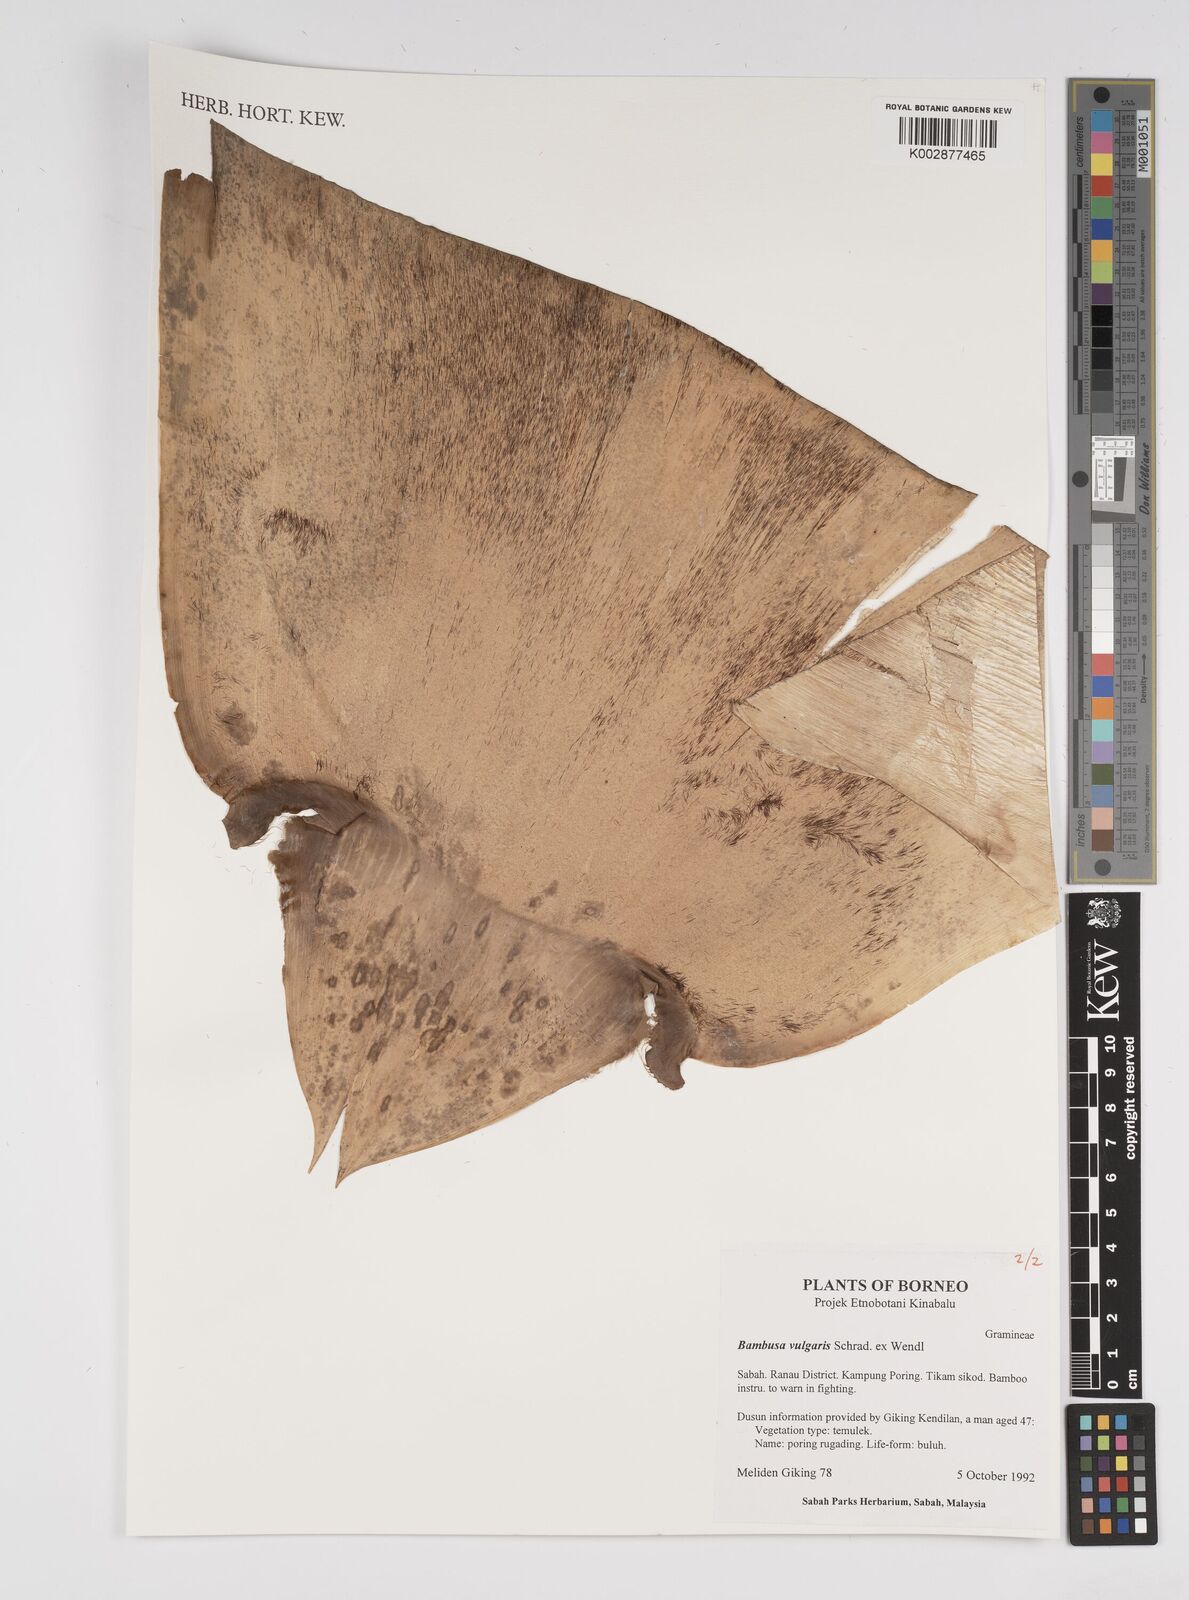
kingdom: Plantae
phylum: Tracheophyta
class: Liliopsida
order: Poales
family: Poaceae
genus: Bambusa
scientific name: Bambusa vulgaris
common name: Common bamboo
